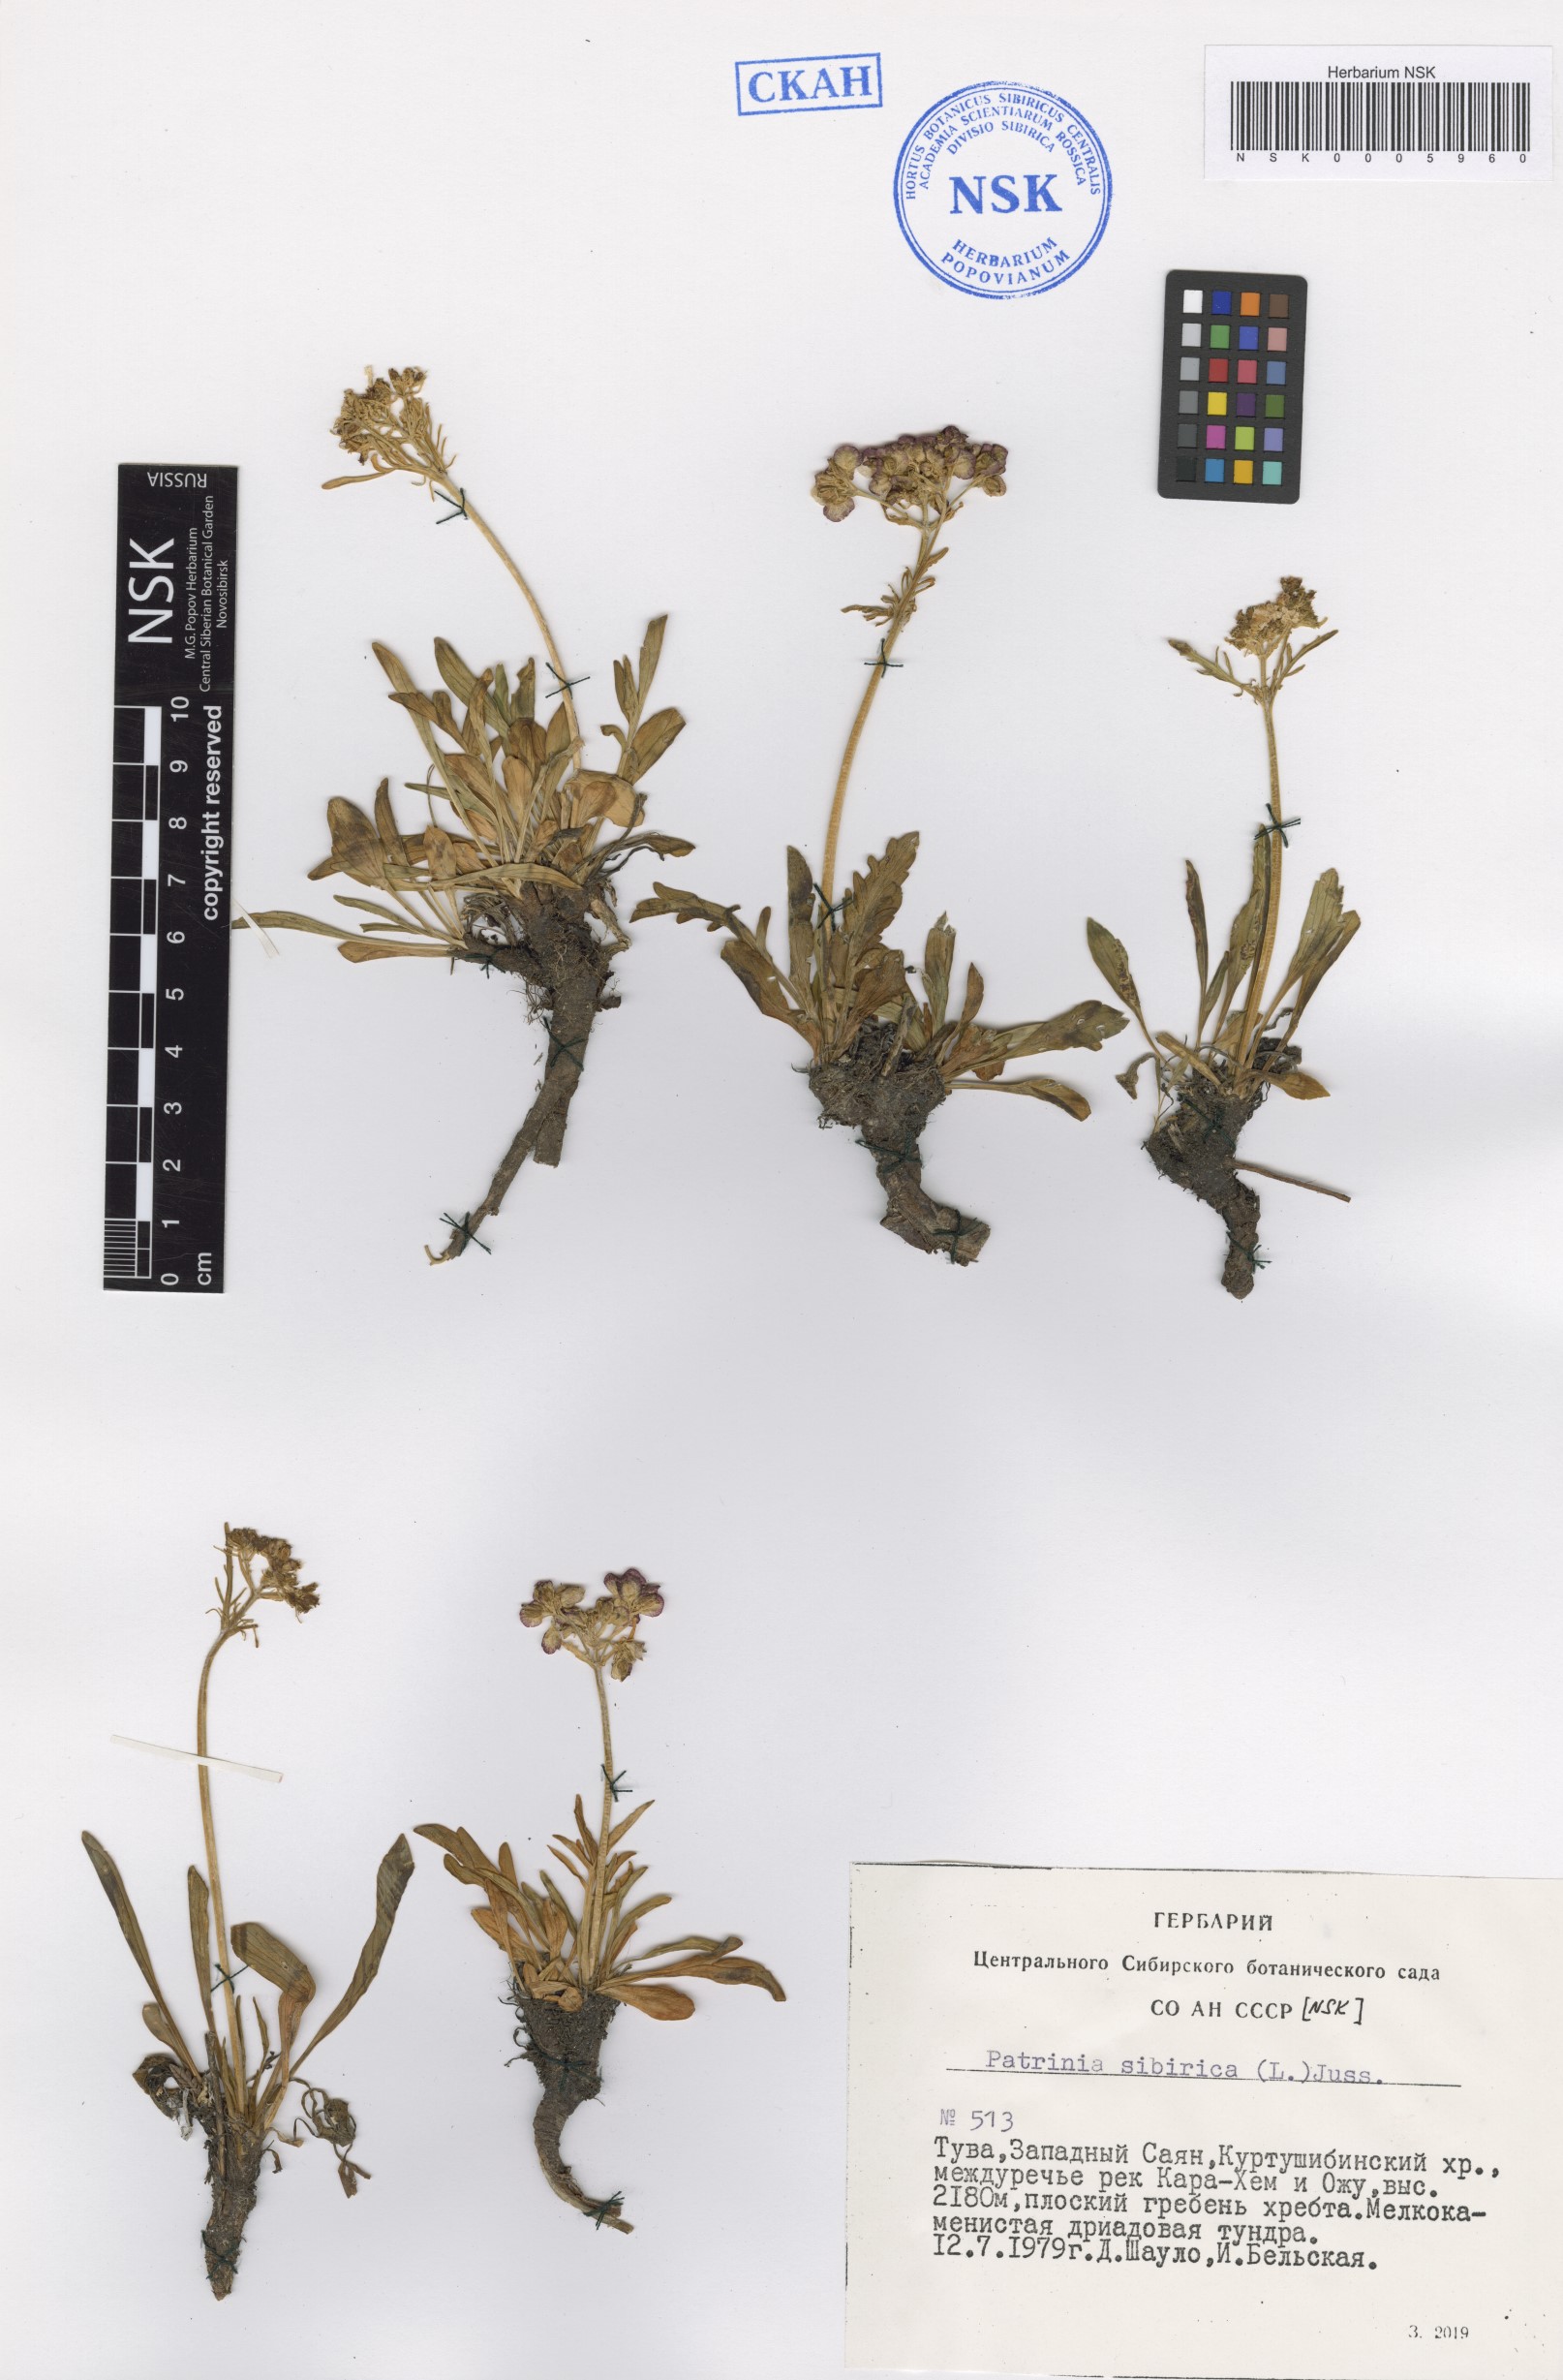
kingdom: Plantae
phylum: Tracheophyta
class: Magnoliopsida
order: Dipsacales
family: Caprifoliaceae
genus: Patrinia
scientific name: Patrinia sibirica
